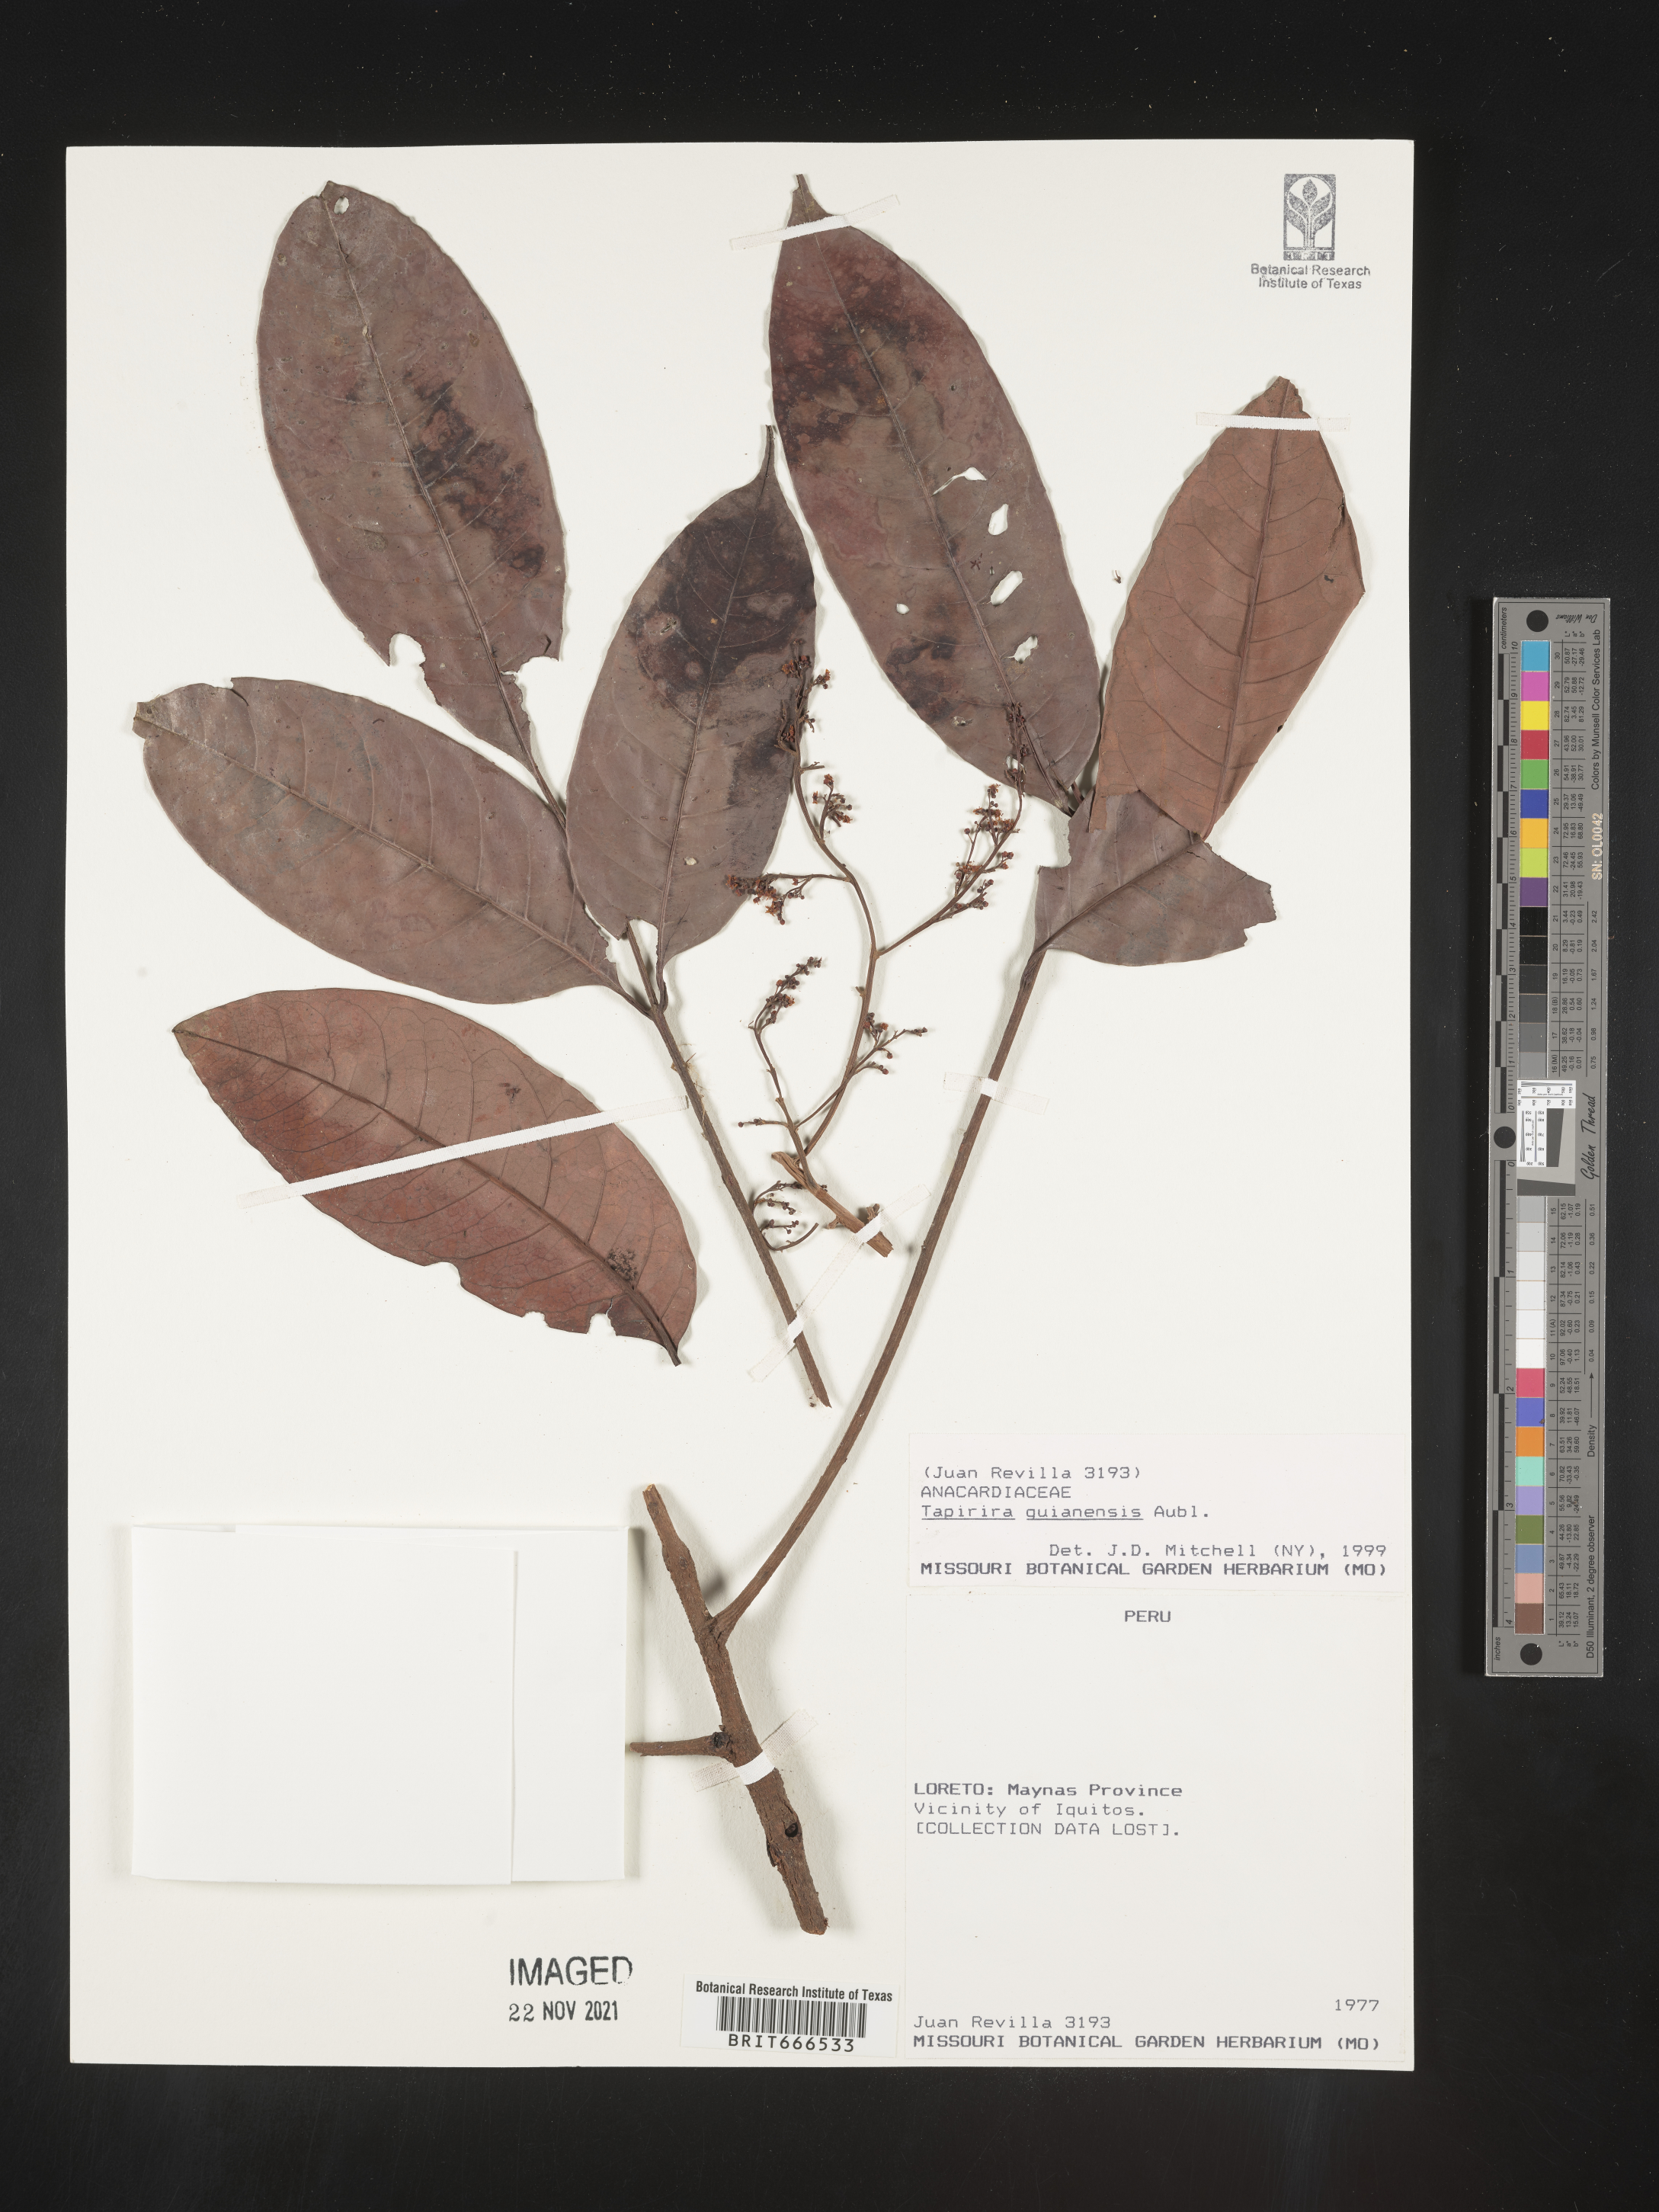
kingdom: Plantae
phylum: Tracheophyta
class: Magnoliopsida
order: Sapindales
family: Anacardiaceae
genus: Tapirira
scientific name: Tapirira
